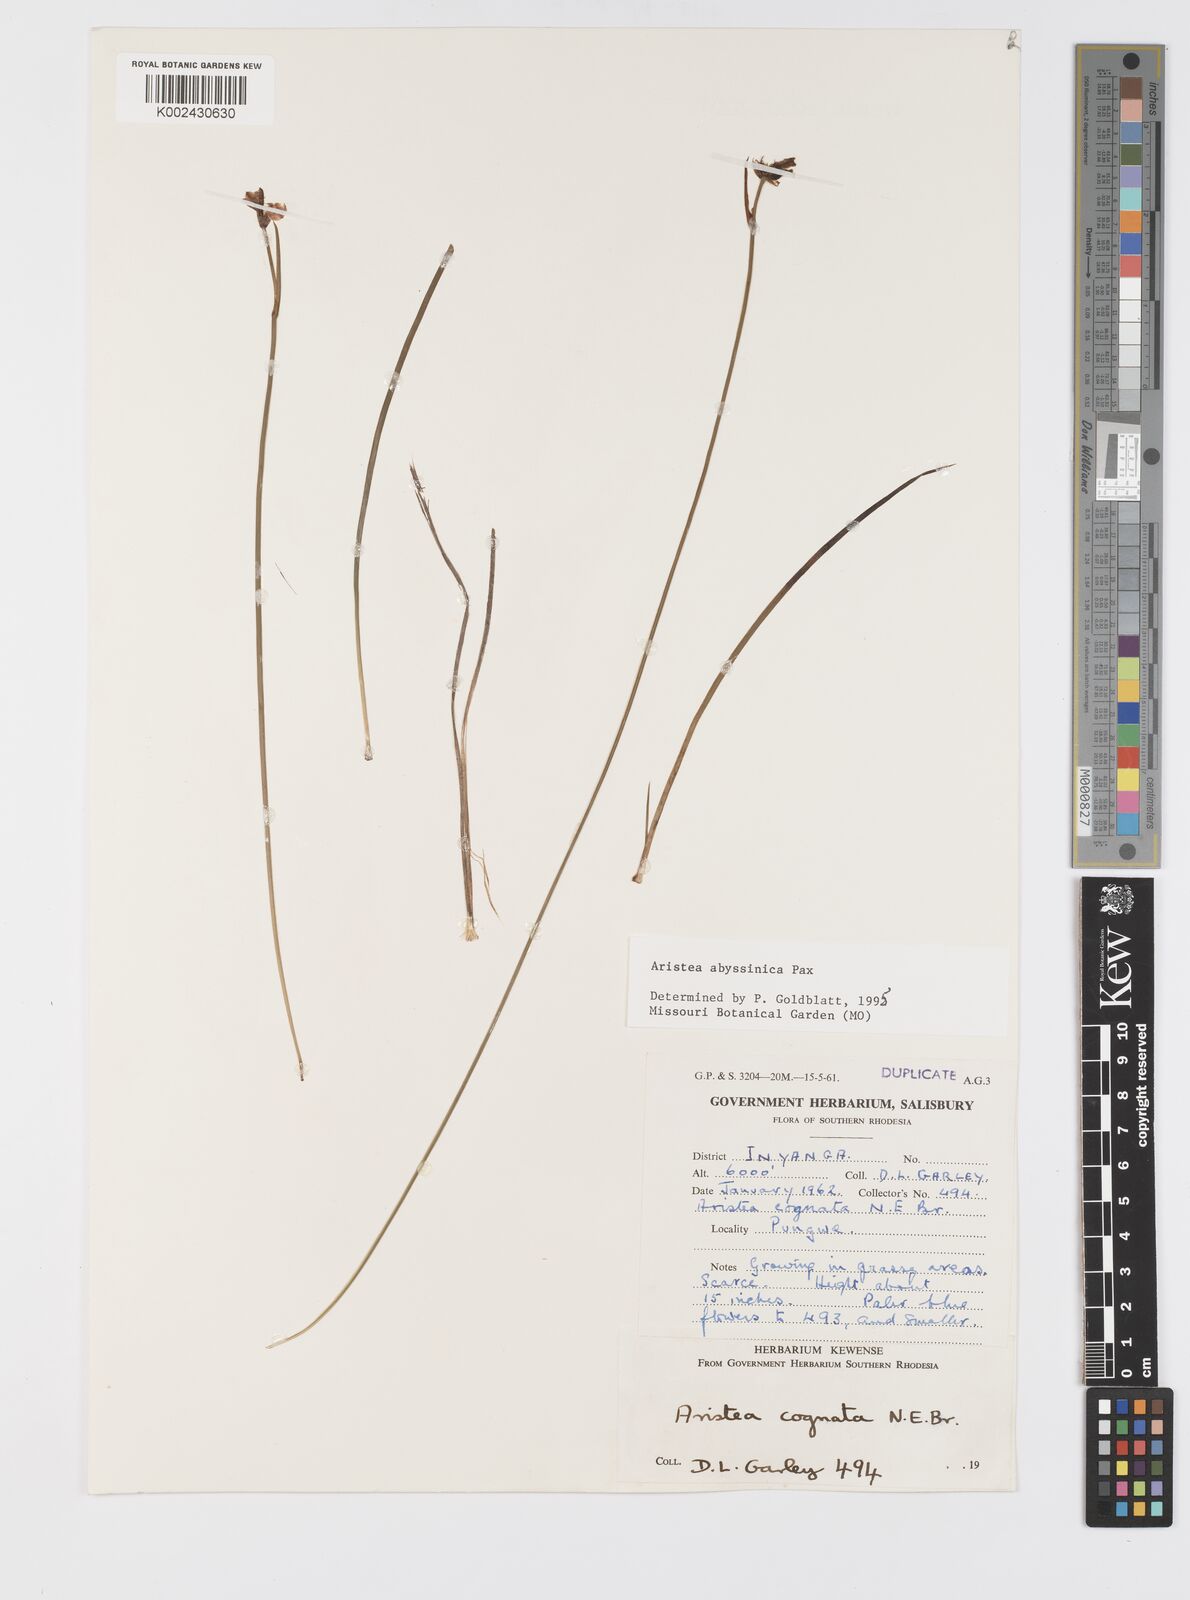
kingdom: Plantae
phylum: Tracheophyta
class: Liliopsida
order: Asparagales
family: Iridaceae
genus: Aristea
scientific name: Aristea abyssinica
